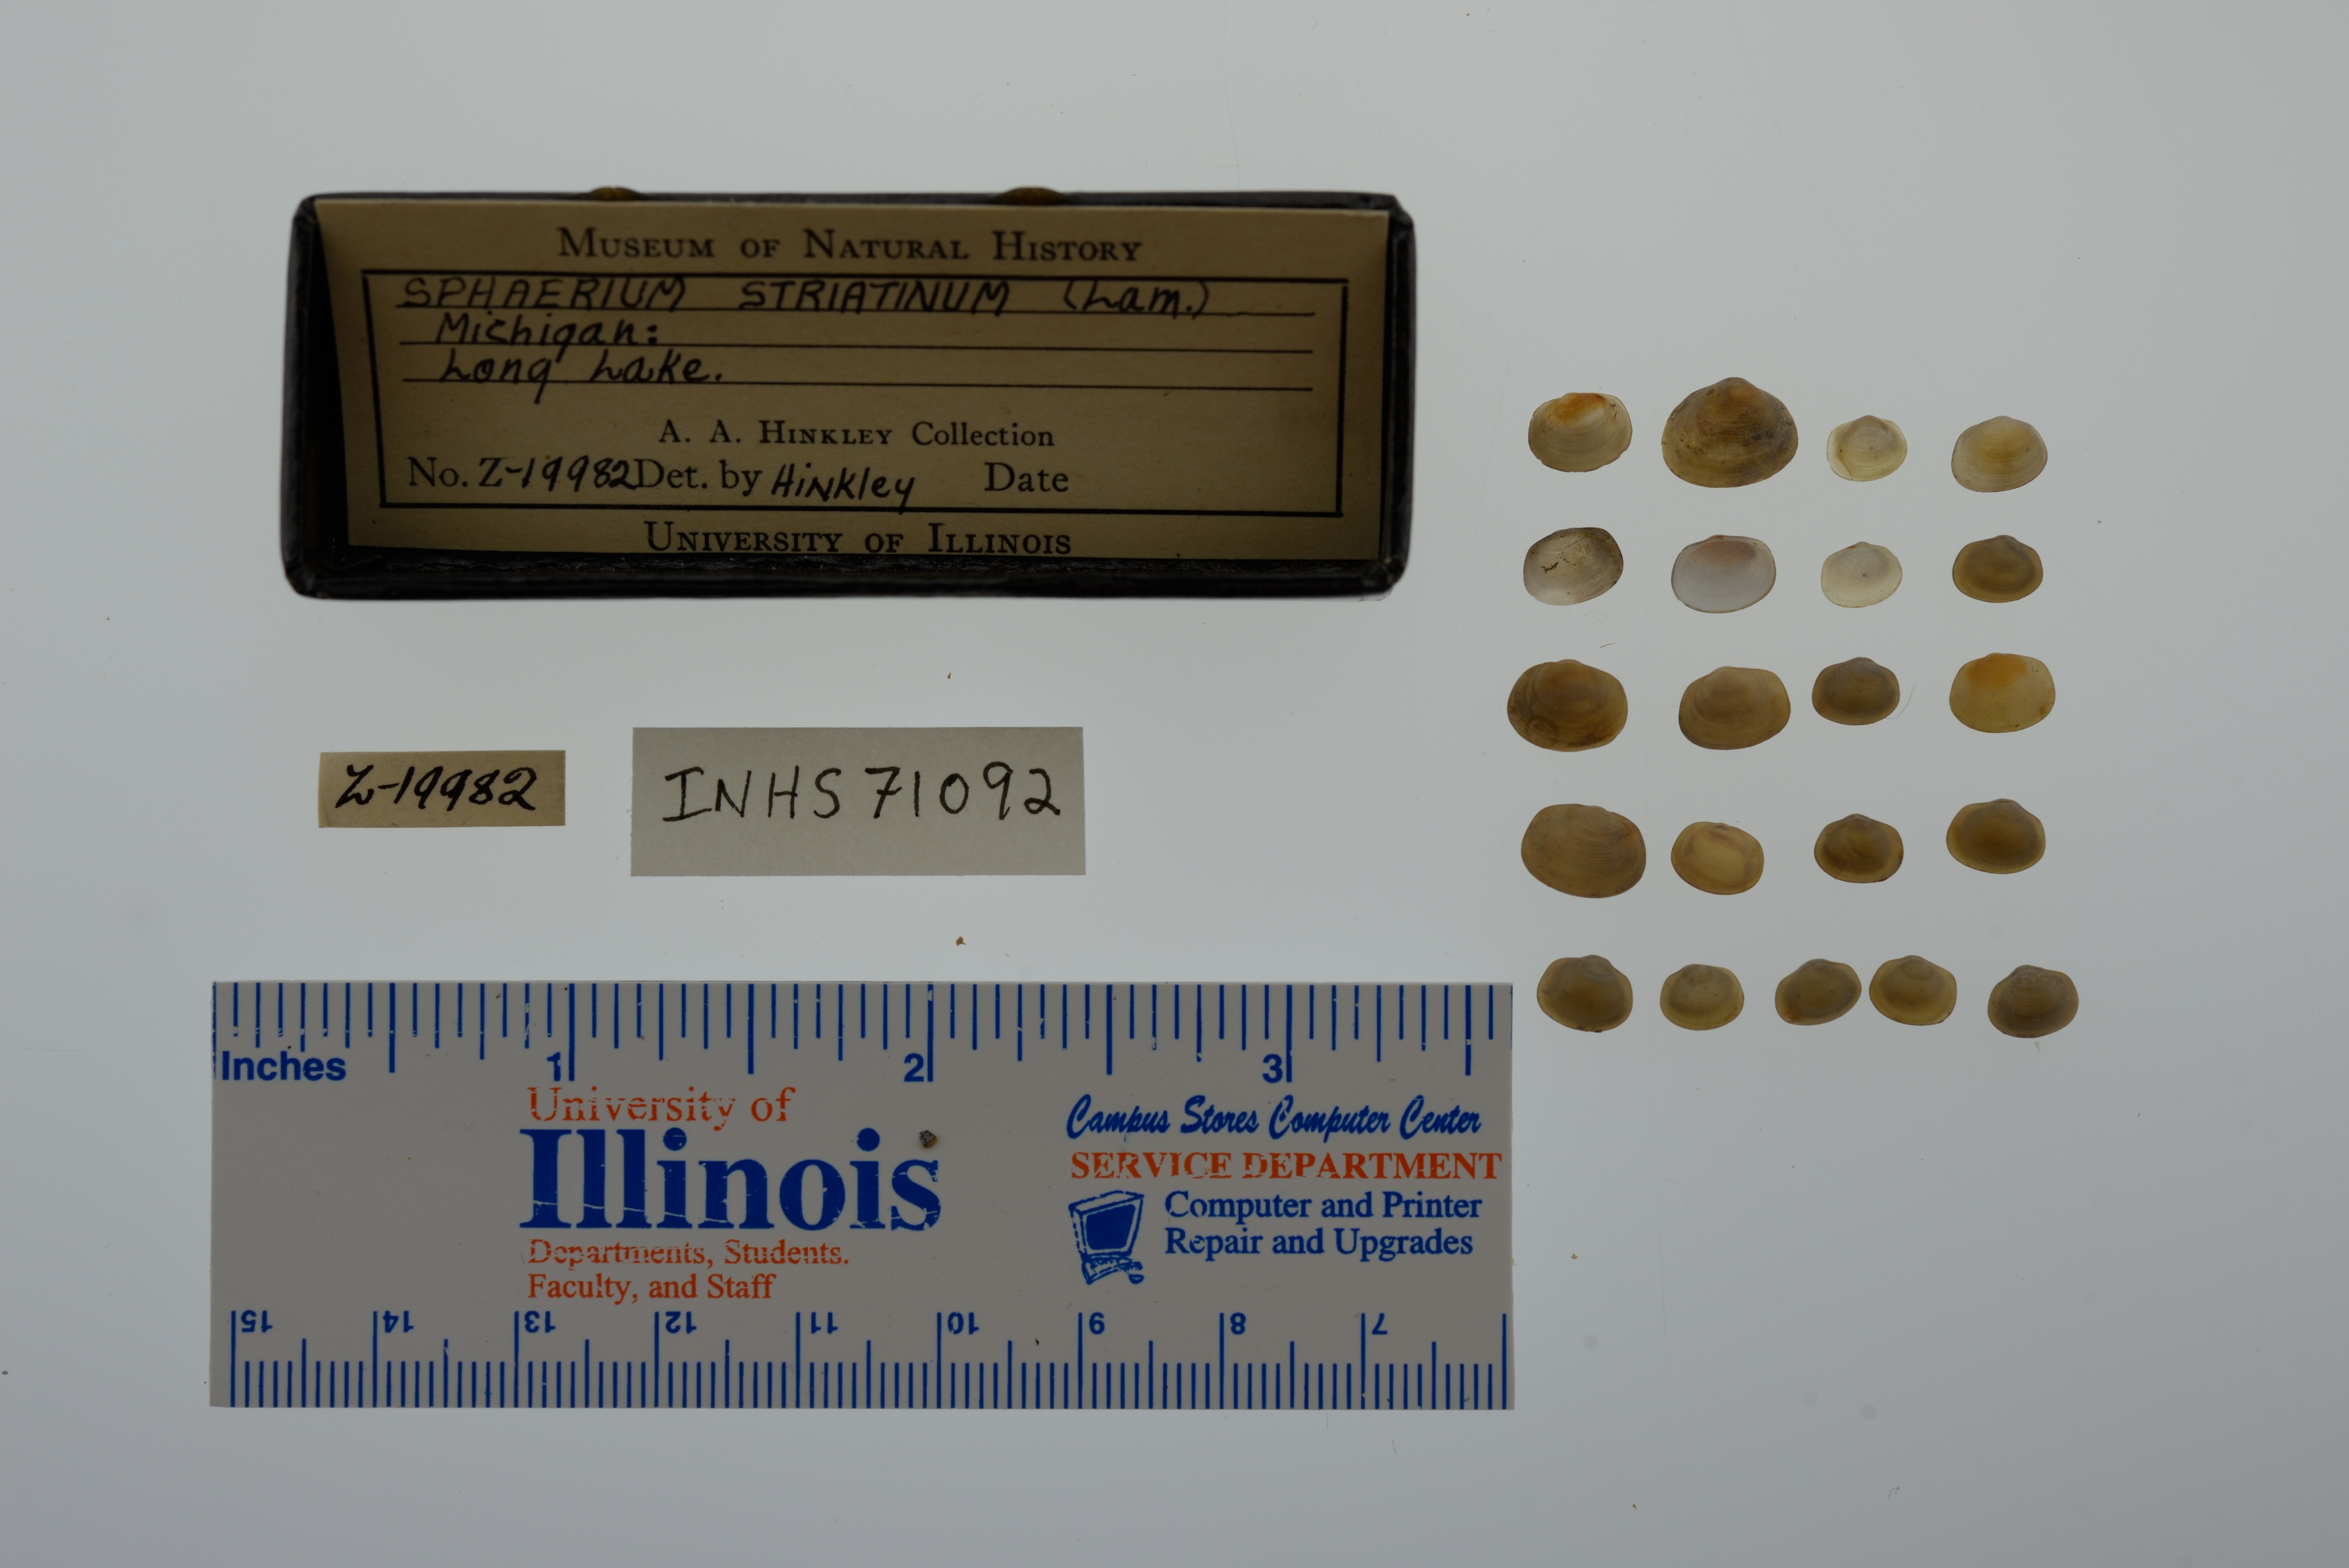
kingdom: Animalia
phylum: Mollusca
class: Bivalvia
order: Sphaeriida
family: Sphaeriidae
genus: Sphaerium
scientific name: Sphaerium striatinum
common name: Striated fingernailclam
